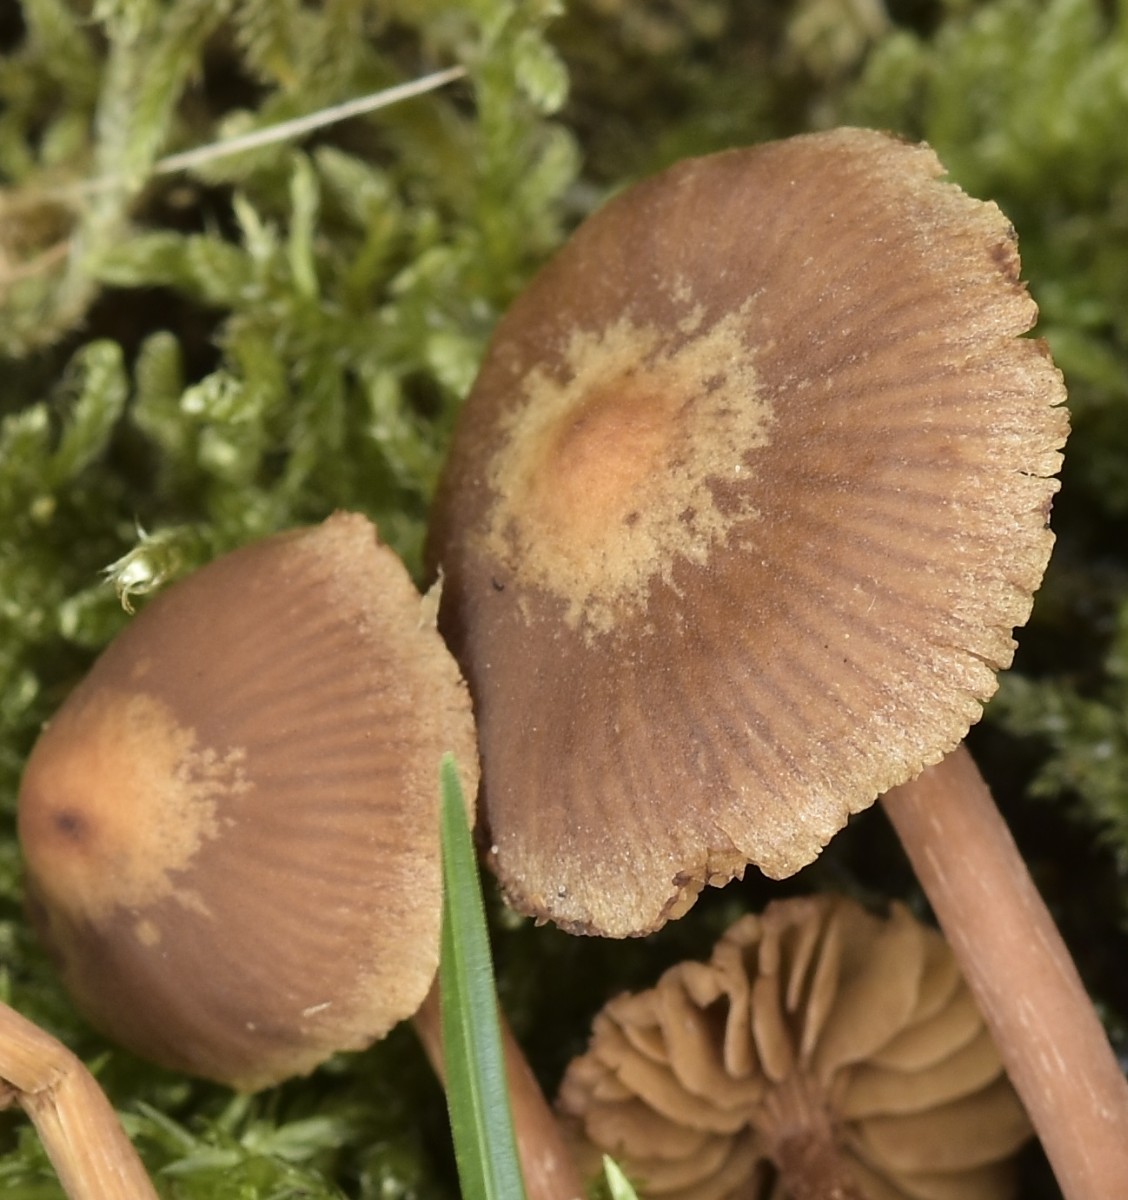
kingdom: Fungi
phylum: Basidiomycota
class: Agaricomycetes
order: Agaricales
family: Hymenogastraceae
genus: Naucoria
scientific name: Naucoria
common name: knaphat
